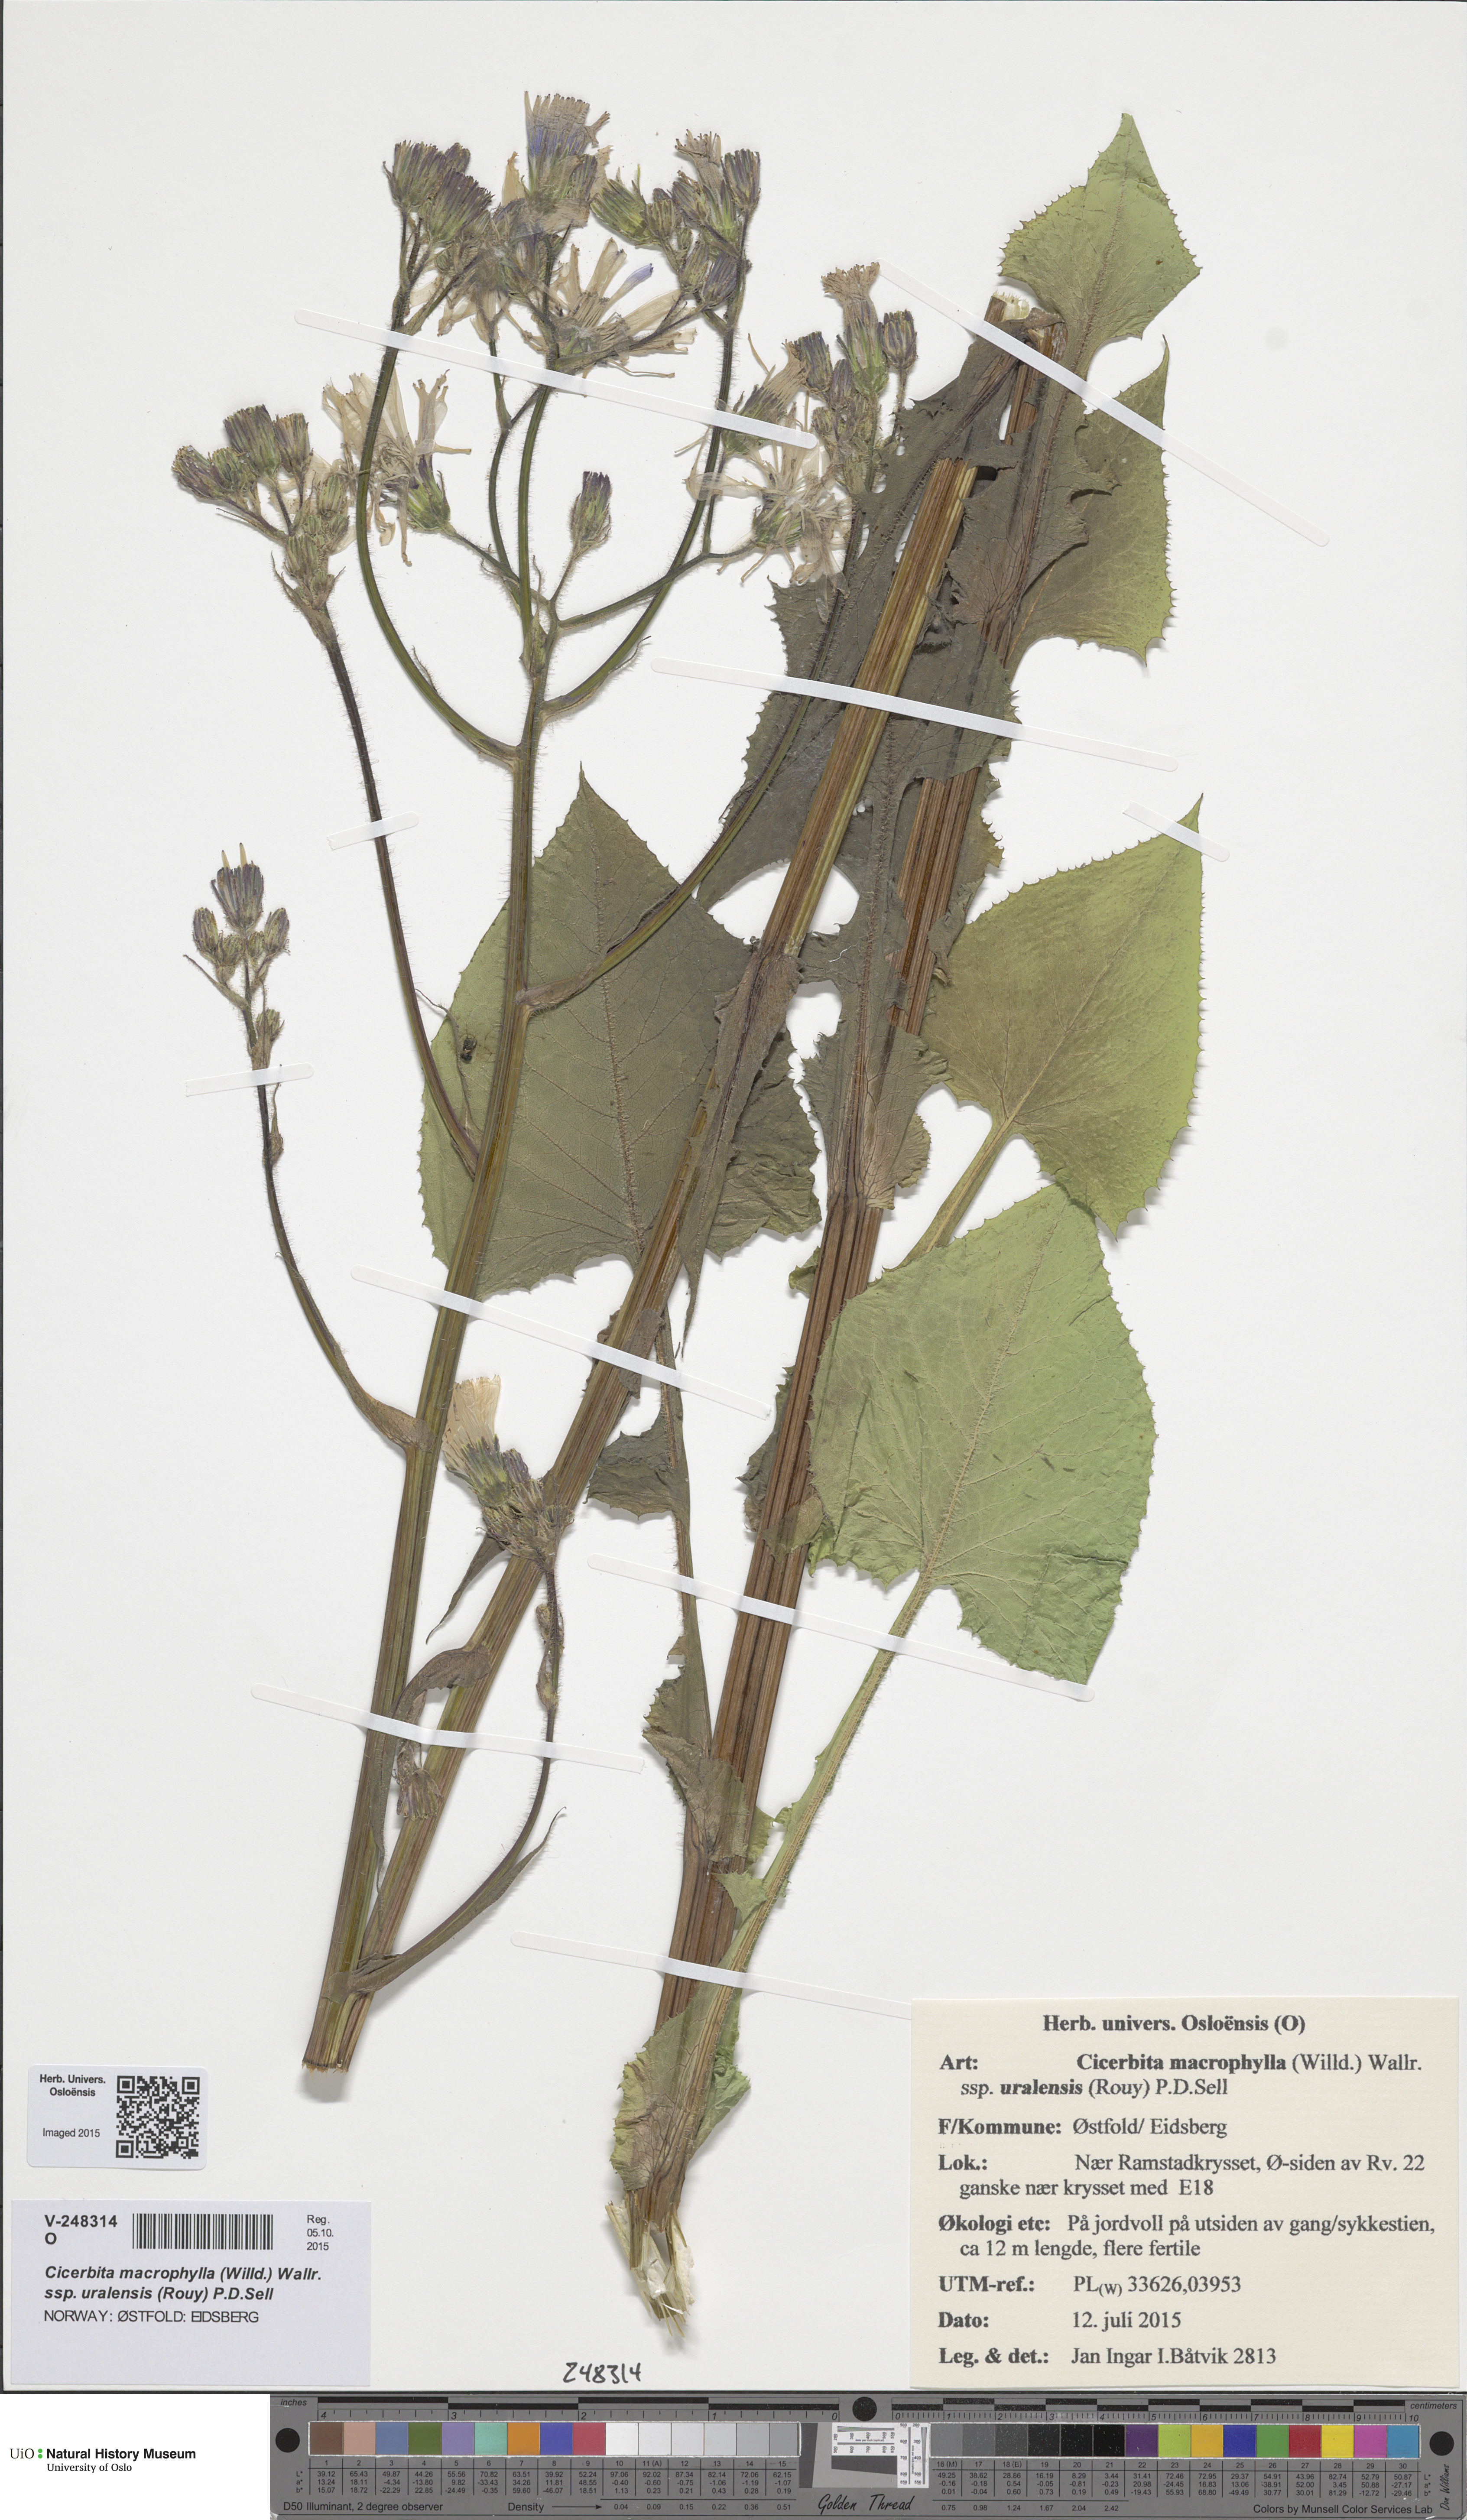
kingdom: Plantae
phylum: Tracheophyta
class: Magnoliopsida
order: Asterales
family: Asteraceae
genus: Lactuca
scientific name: Lactuca macrophylla
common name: Common blue-sow-thistle
